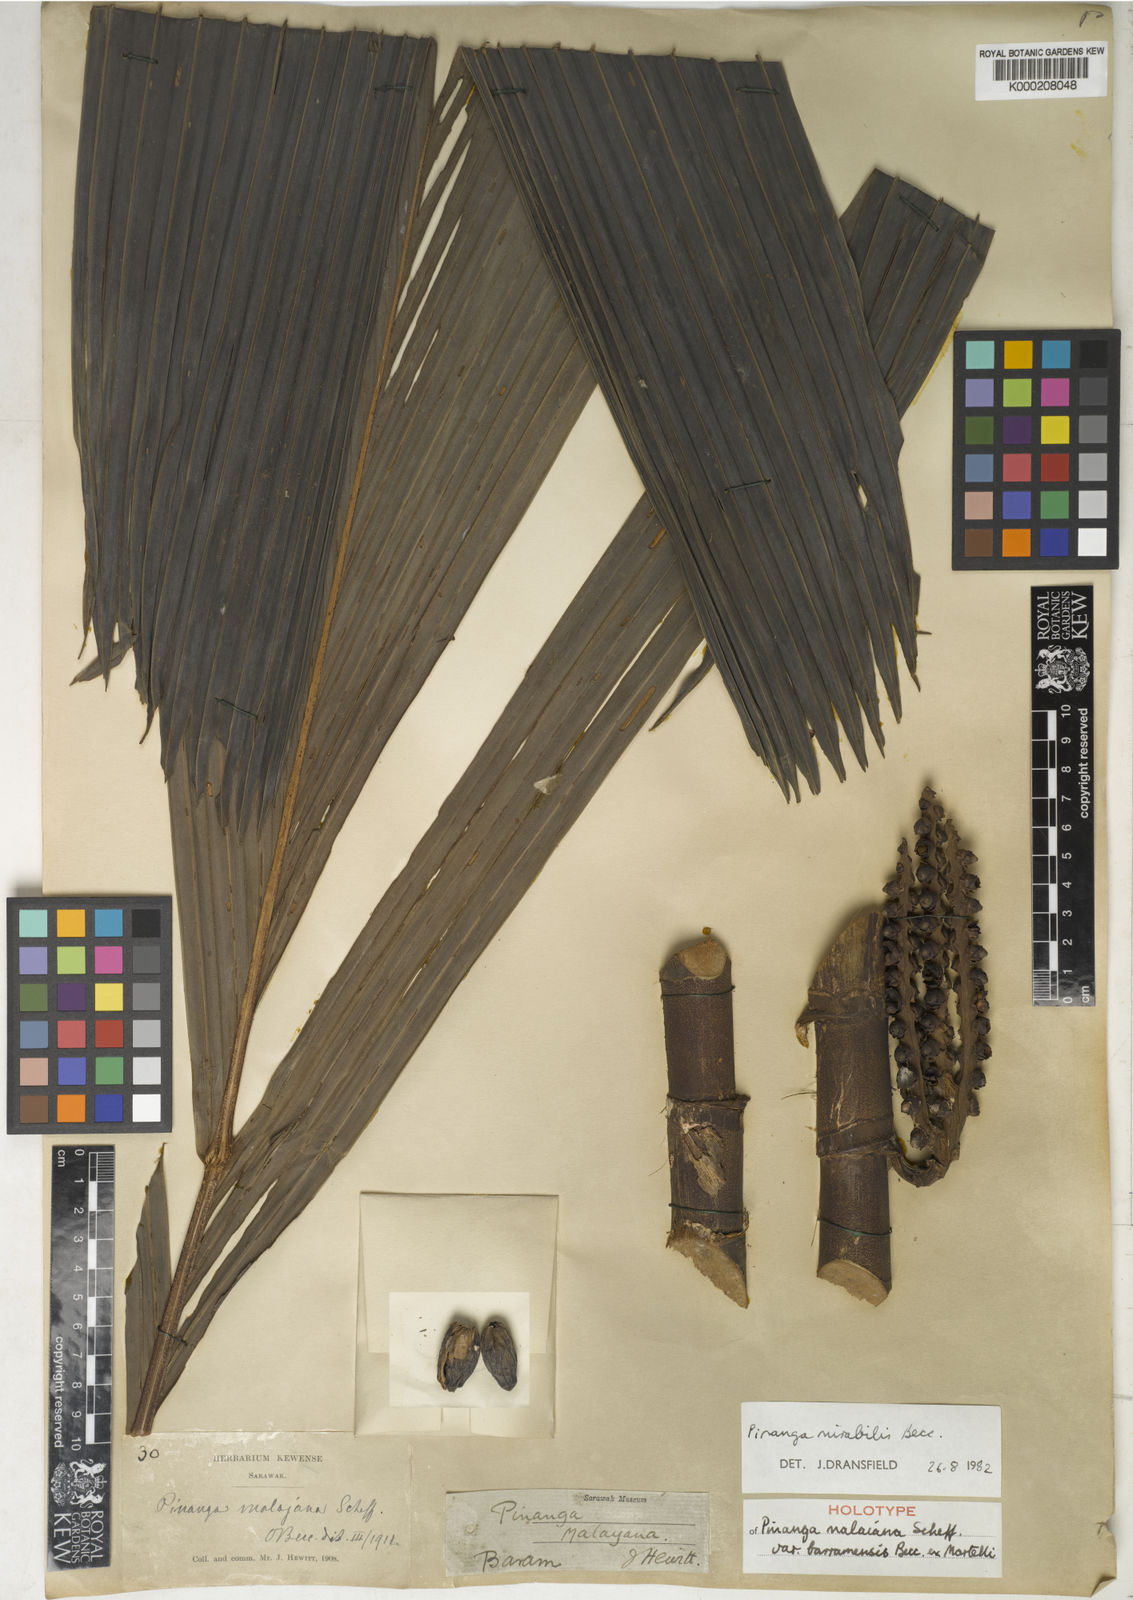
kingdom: Plantae
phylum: Tracheophyta
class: Liliopsida
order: Arecales
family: Arecaceae
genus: Pinanga
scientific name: Pinanga mirabilis
